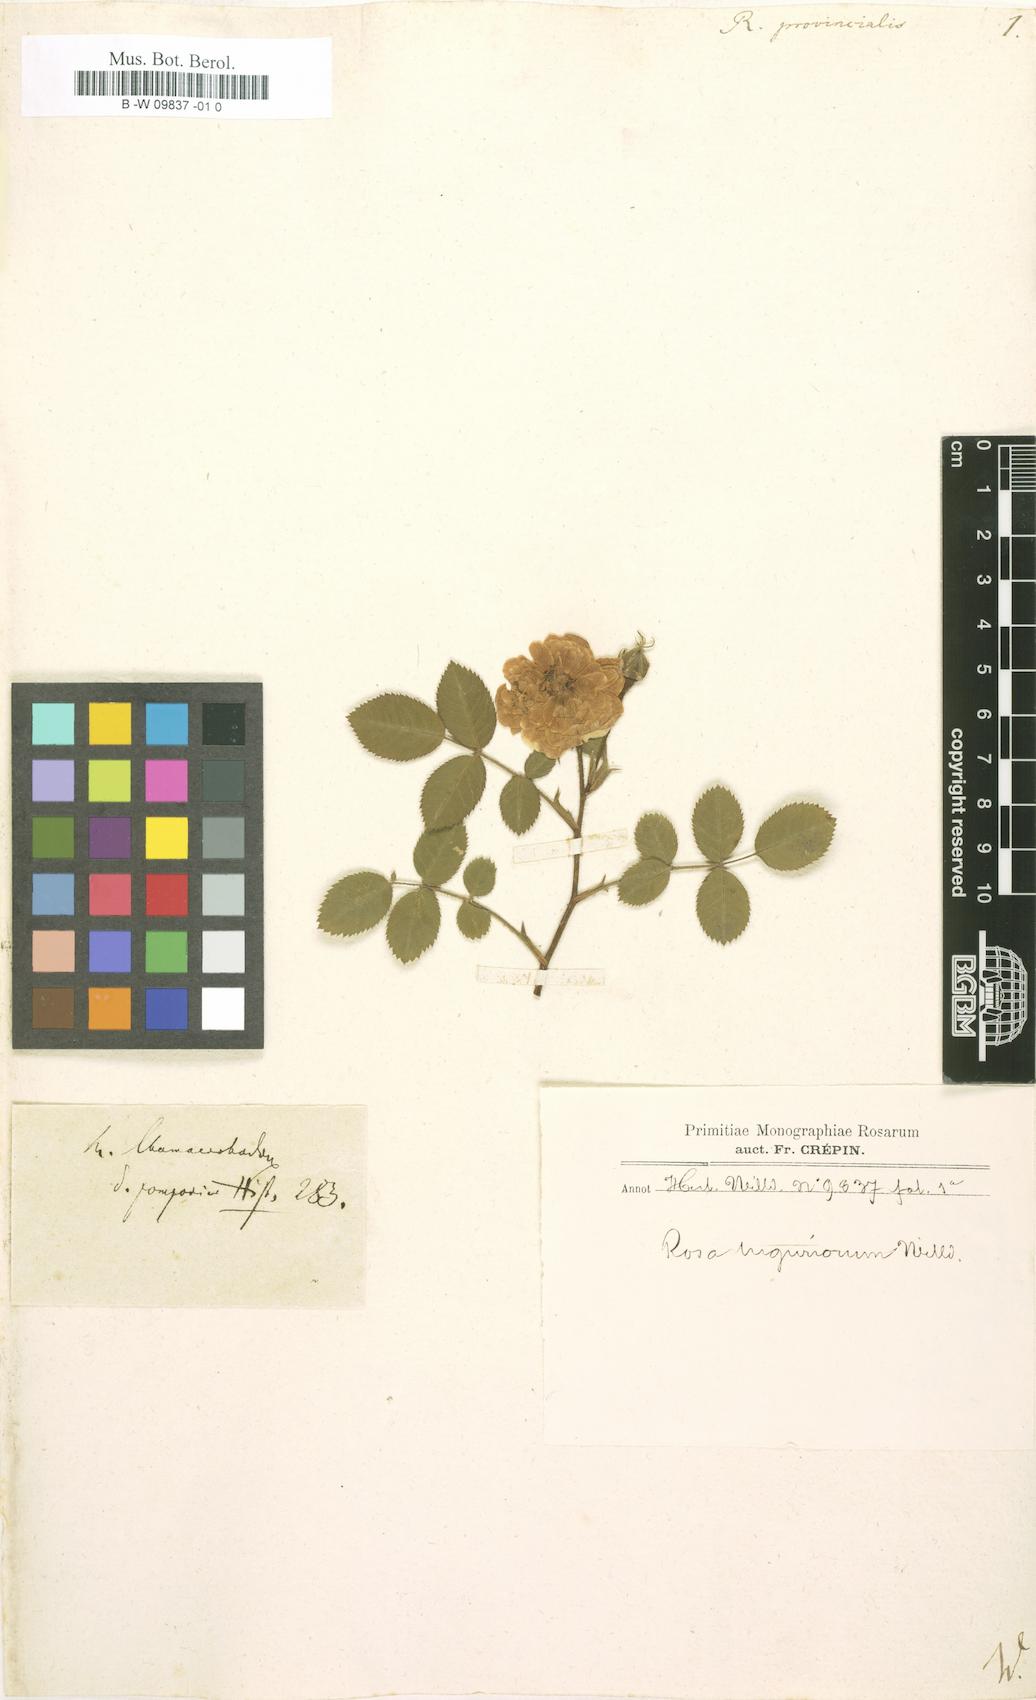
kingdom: Plantae
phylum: Tracheophyta
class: Magnoliopsida
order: Rosales
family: Rosaceae
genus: Rosa
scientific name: Rosa
